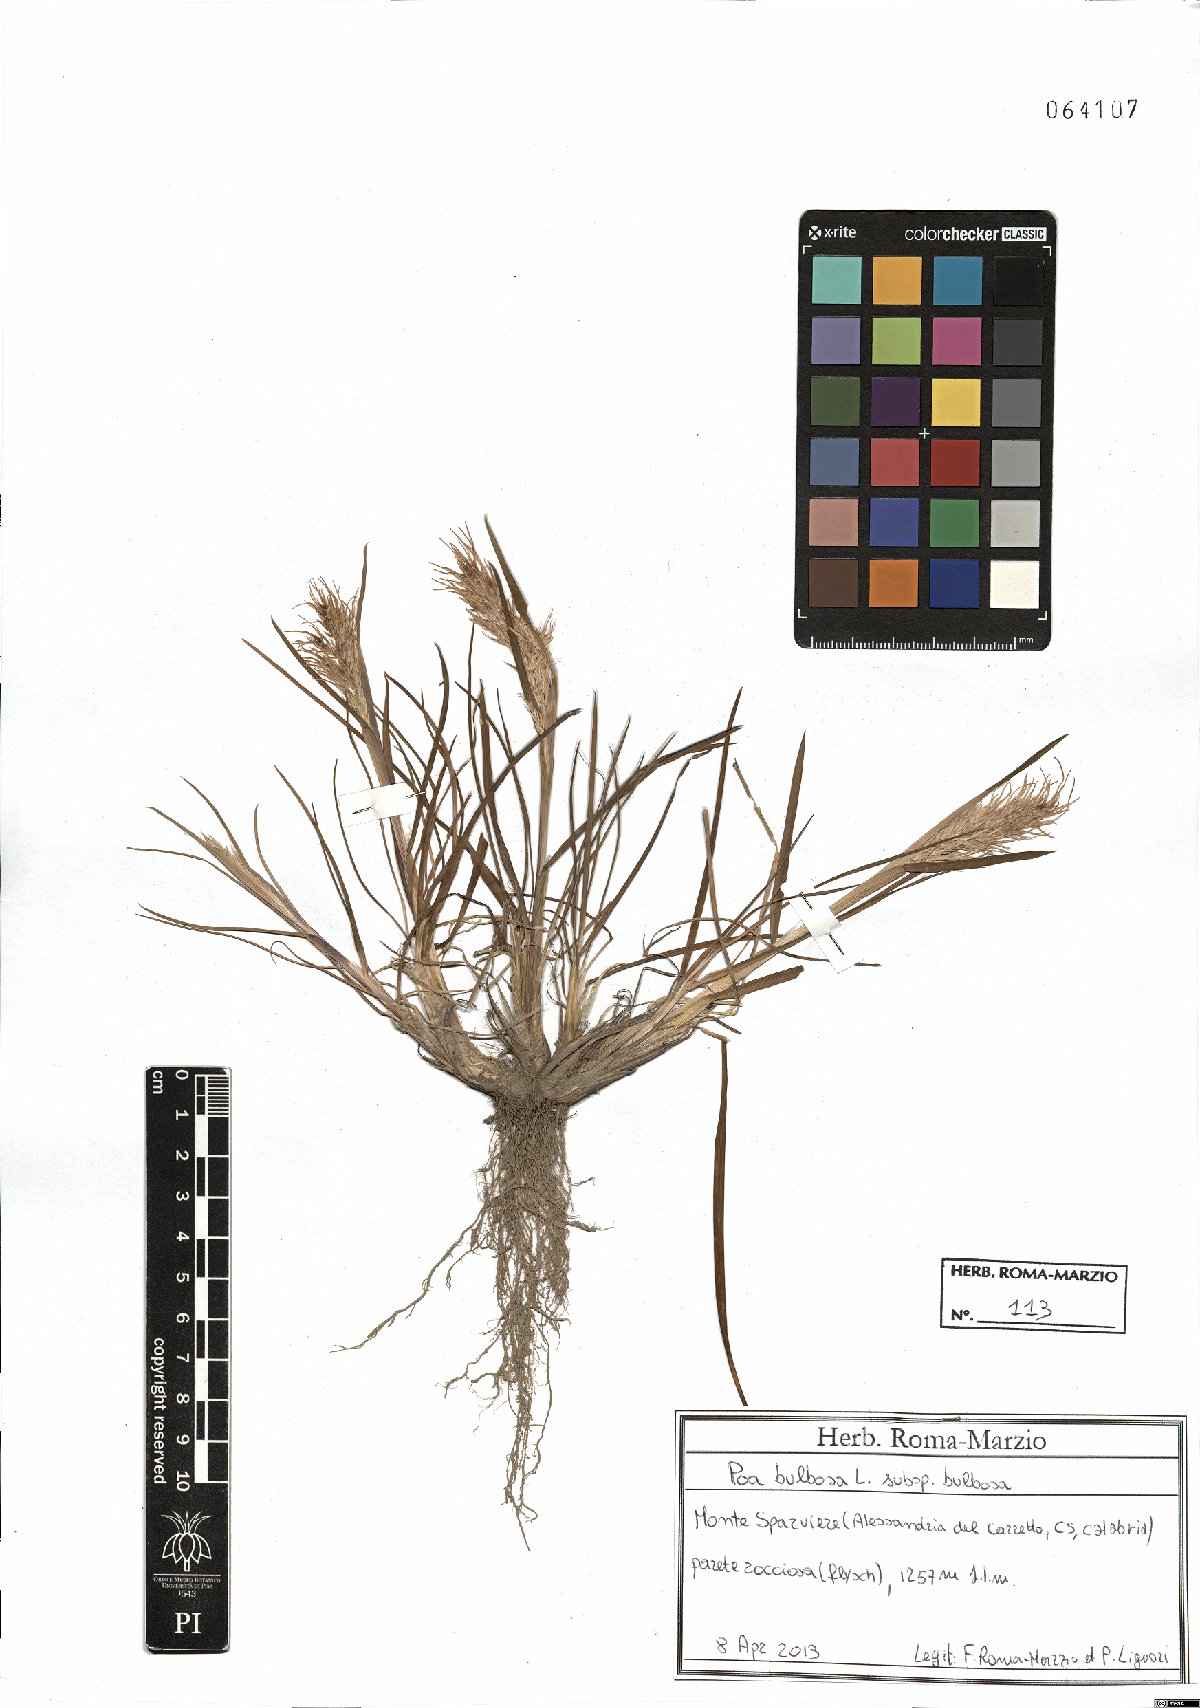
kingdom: Plantae
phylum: Tracheophyta
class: Liliopsida
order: Poales
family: Poaceae
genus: Poa
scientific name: Poa bulbosa
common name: Bulbous bluegrass
